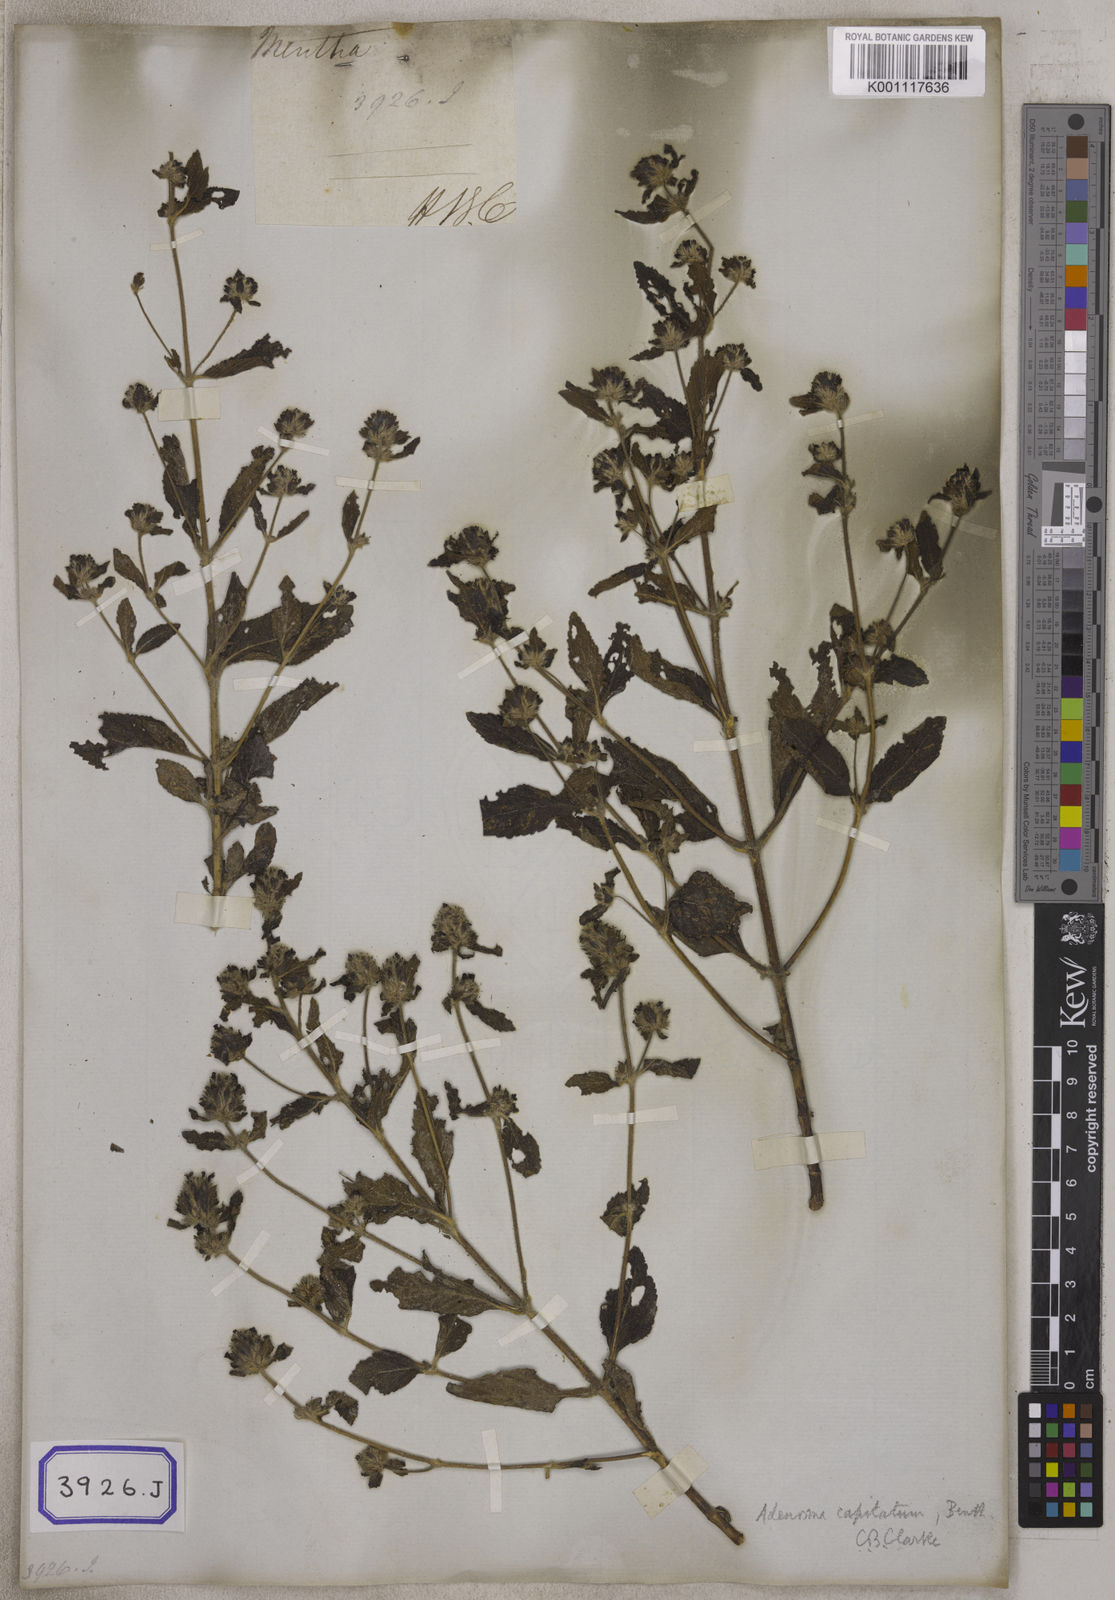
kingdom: Plantae
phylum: Tracheophyta
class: Magnoliopsida
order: Lamiales
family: Plantaginaceae
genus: Stemodia
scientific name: Stemodia
